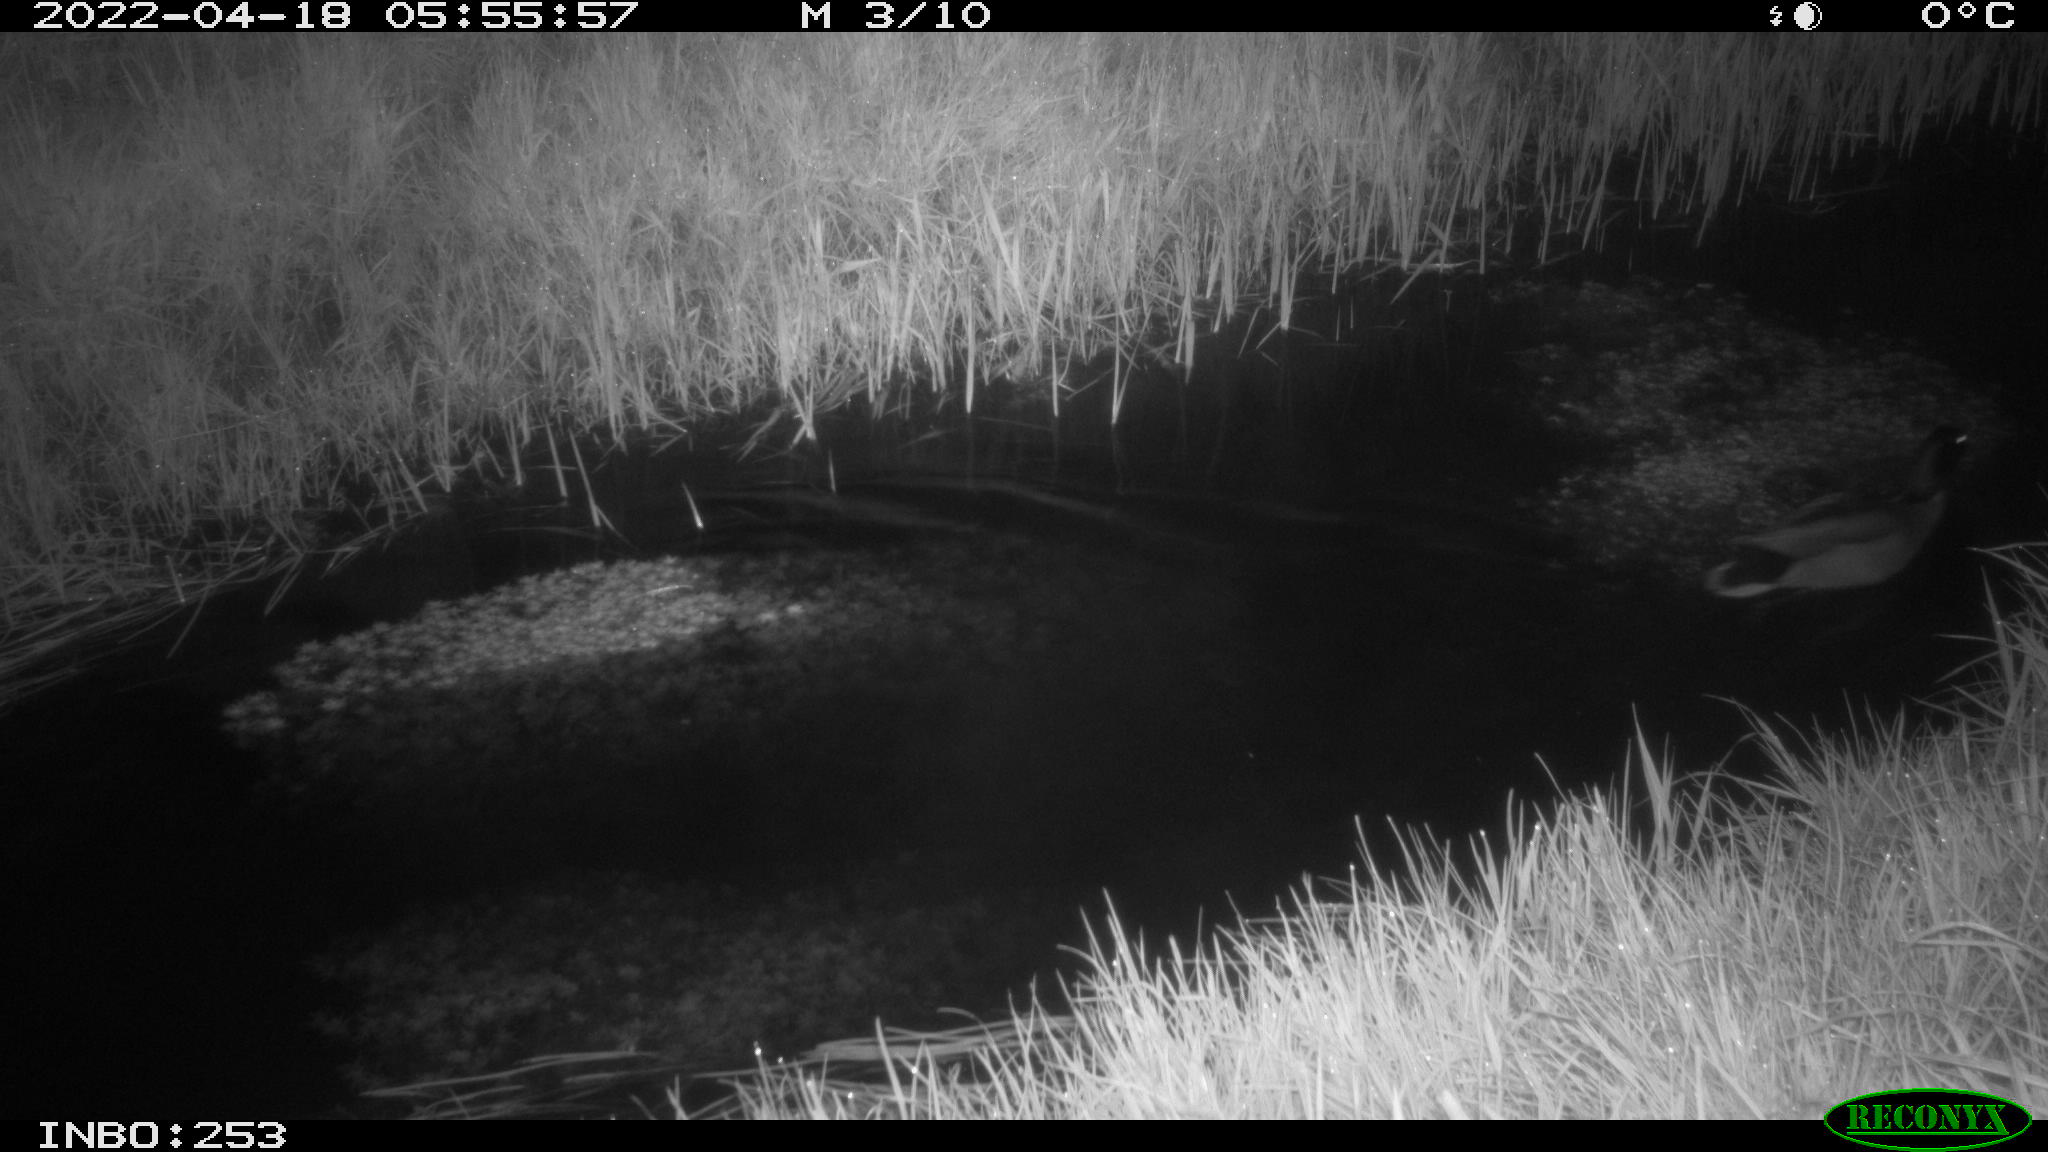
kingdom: Animalia
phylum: Chordata
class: Aves
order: Anseriformes
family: Anatidae
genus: Anas
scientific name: Anas platyrhynchos
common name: Mallard
